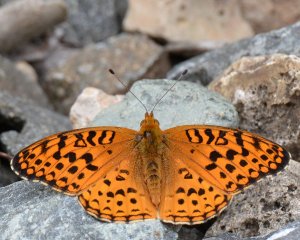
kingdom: Animalia
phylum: Arthropoda
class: Insecta
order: Lepidoptera
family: Nymphalidae
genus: Speyeria
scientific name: Speyeria aphrodite
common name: Aphrodite Fritillary
